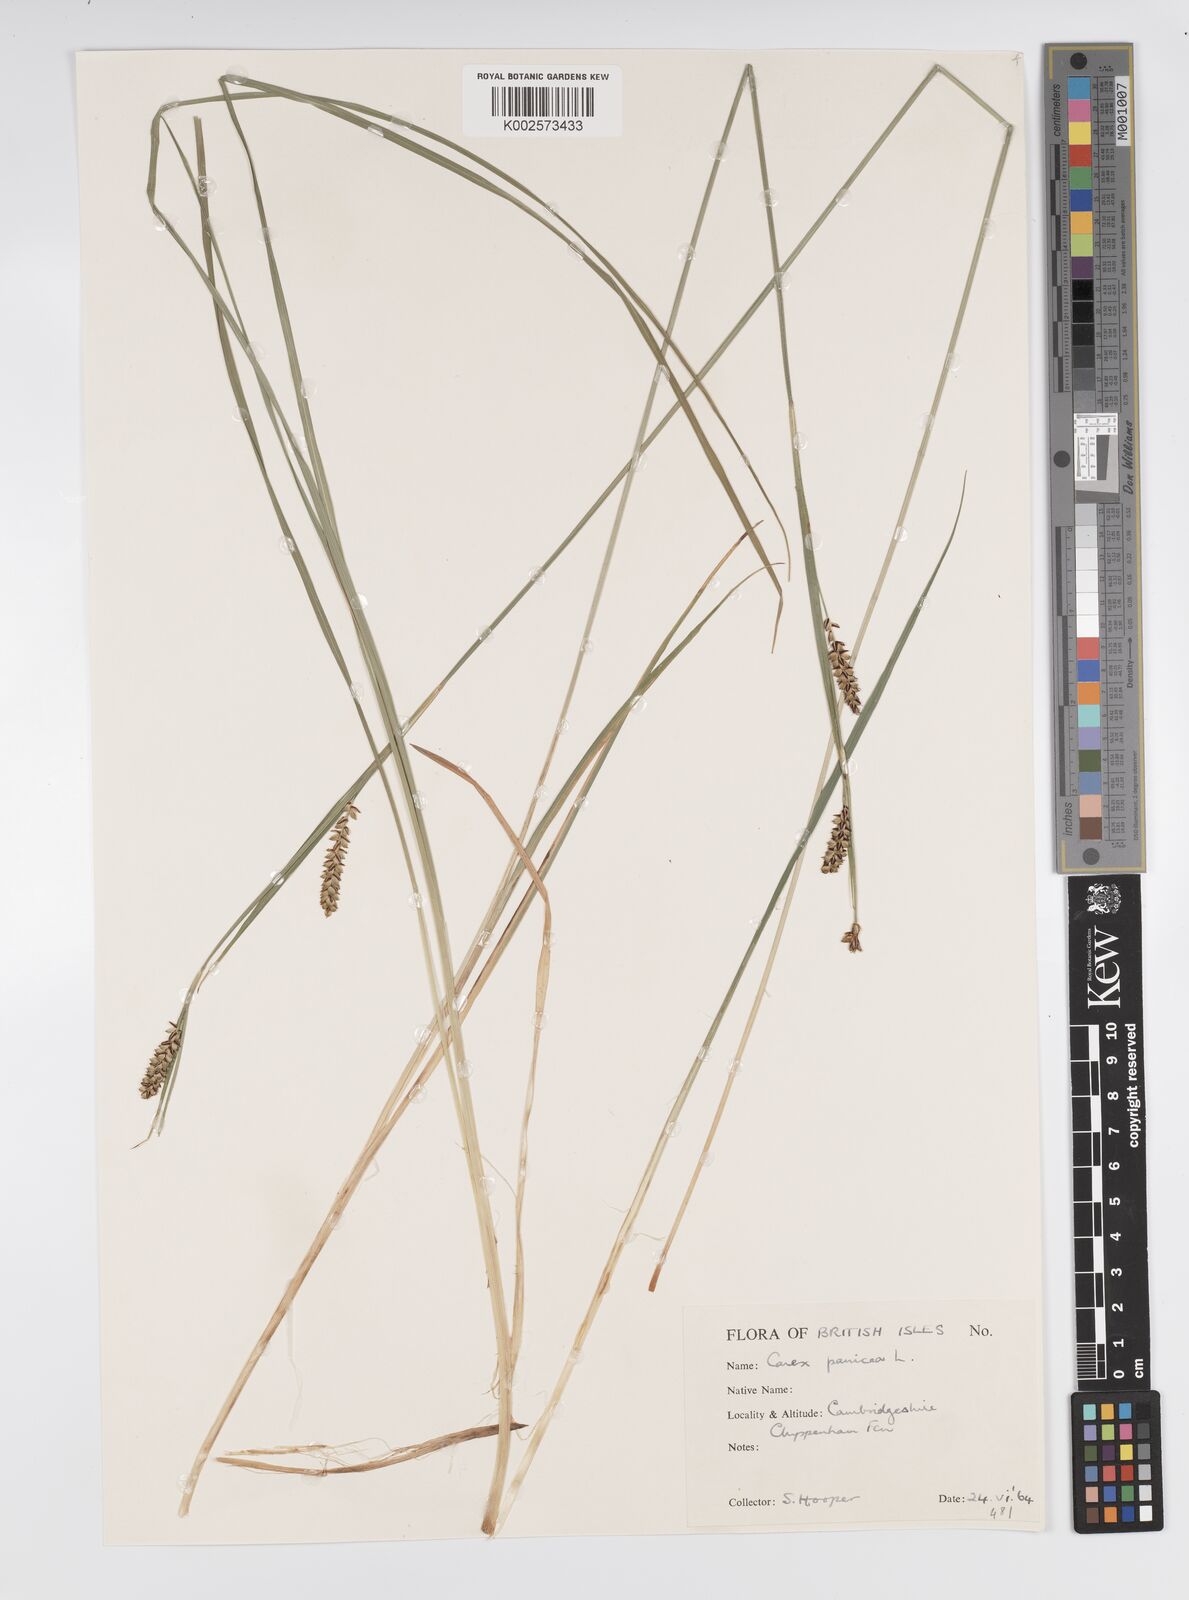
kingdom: Plantae
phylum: Tracheophyta
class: Liliopsida
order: Poales
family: Cyperaceae
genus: Carex
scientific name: Carex panicea
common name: Carnation sedge
